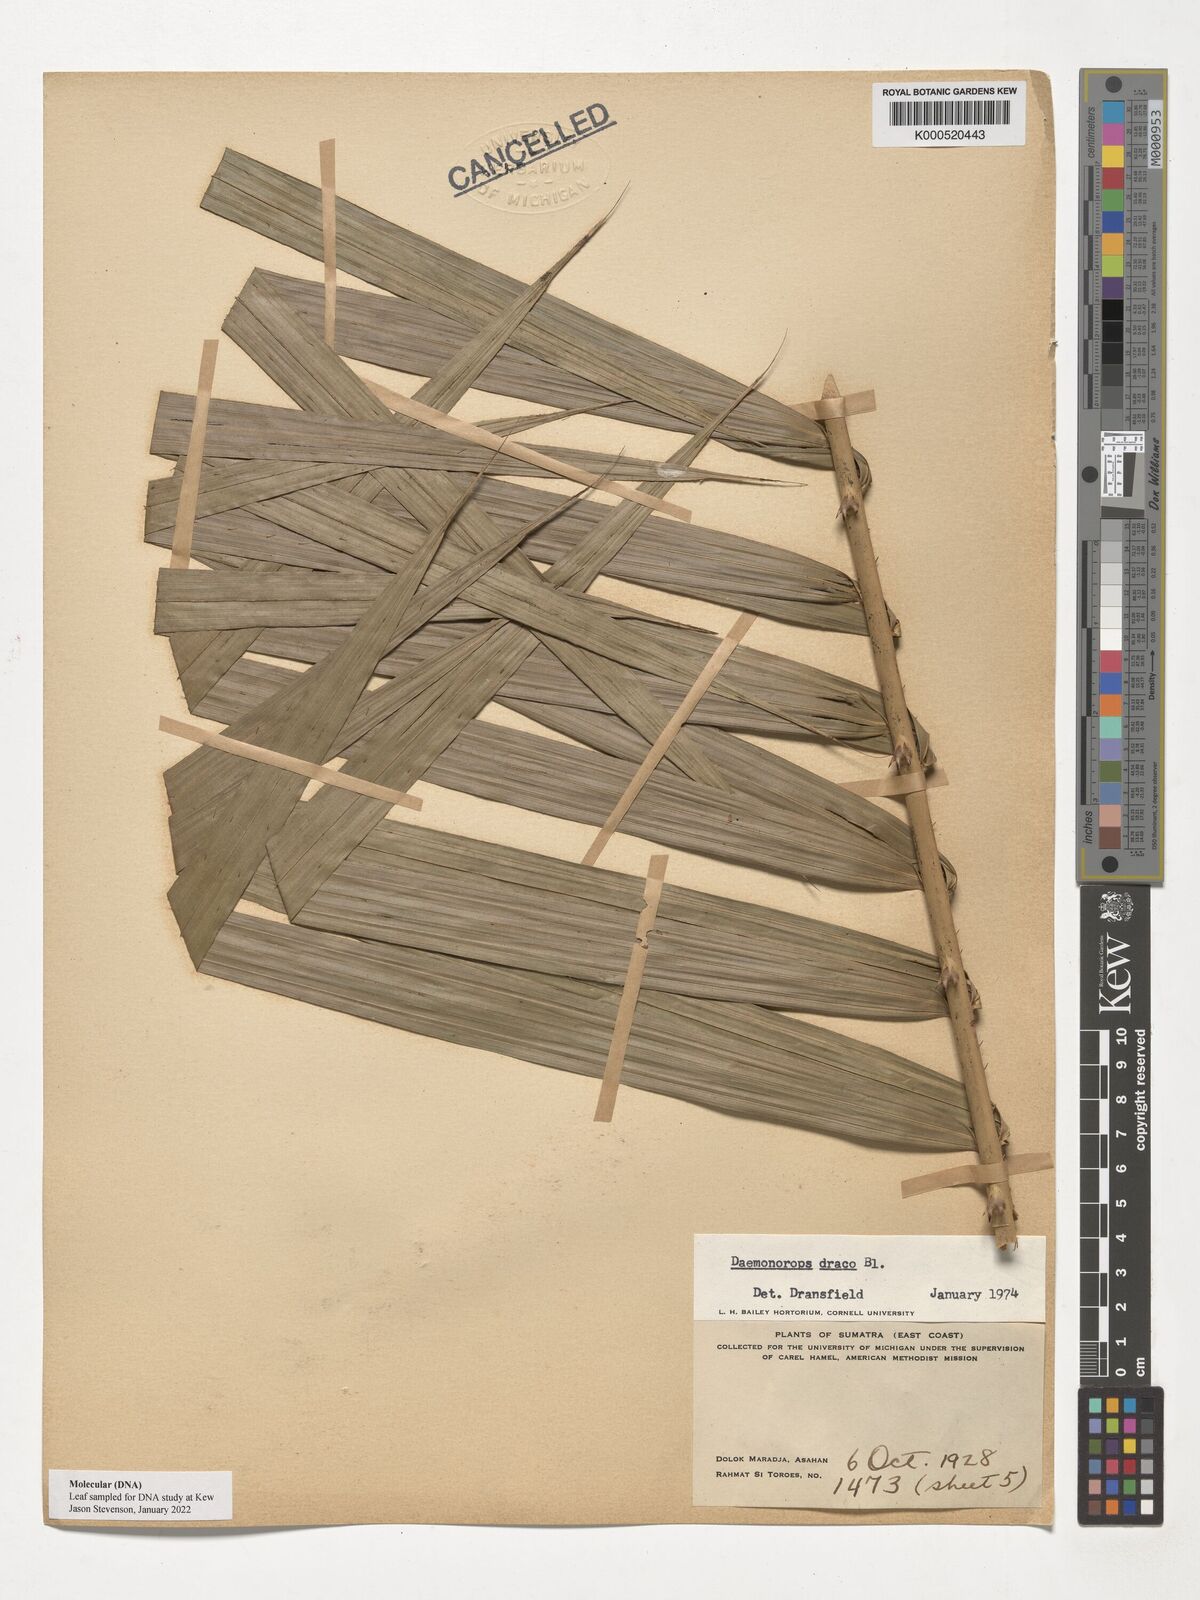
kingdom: Plantae
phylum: Tracheophyta
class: Liliopsida
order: Arecales
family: Arecaceae
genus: Calamus
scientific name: Calamus draco
